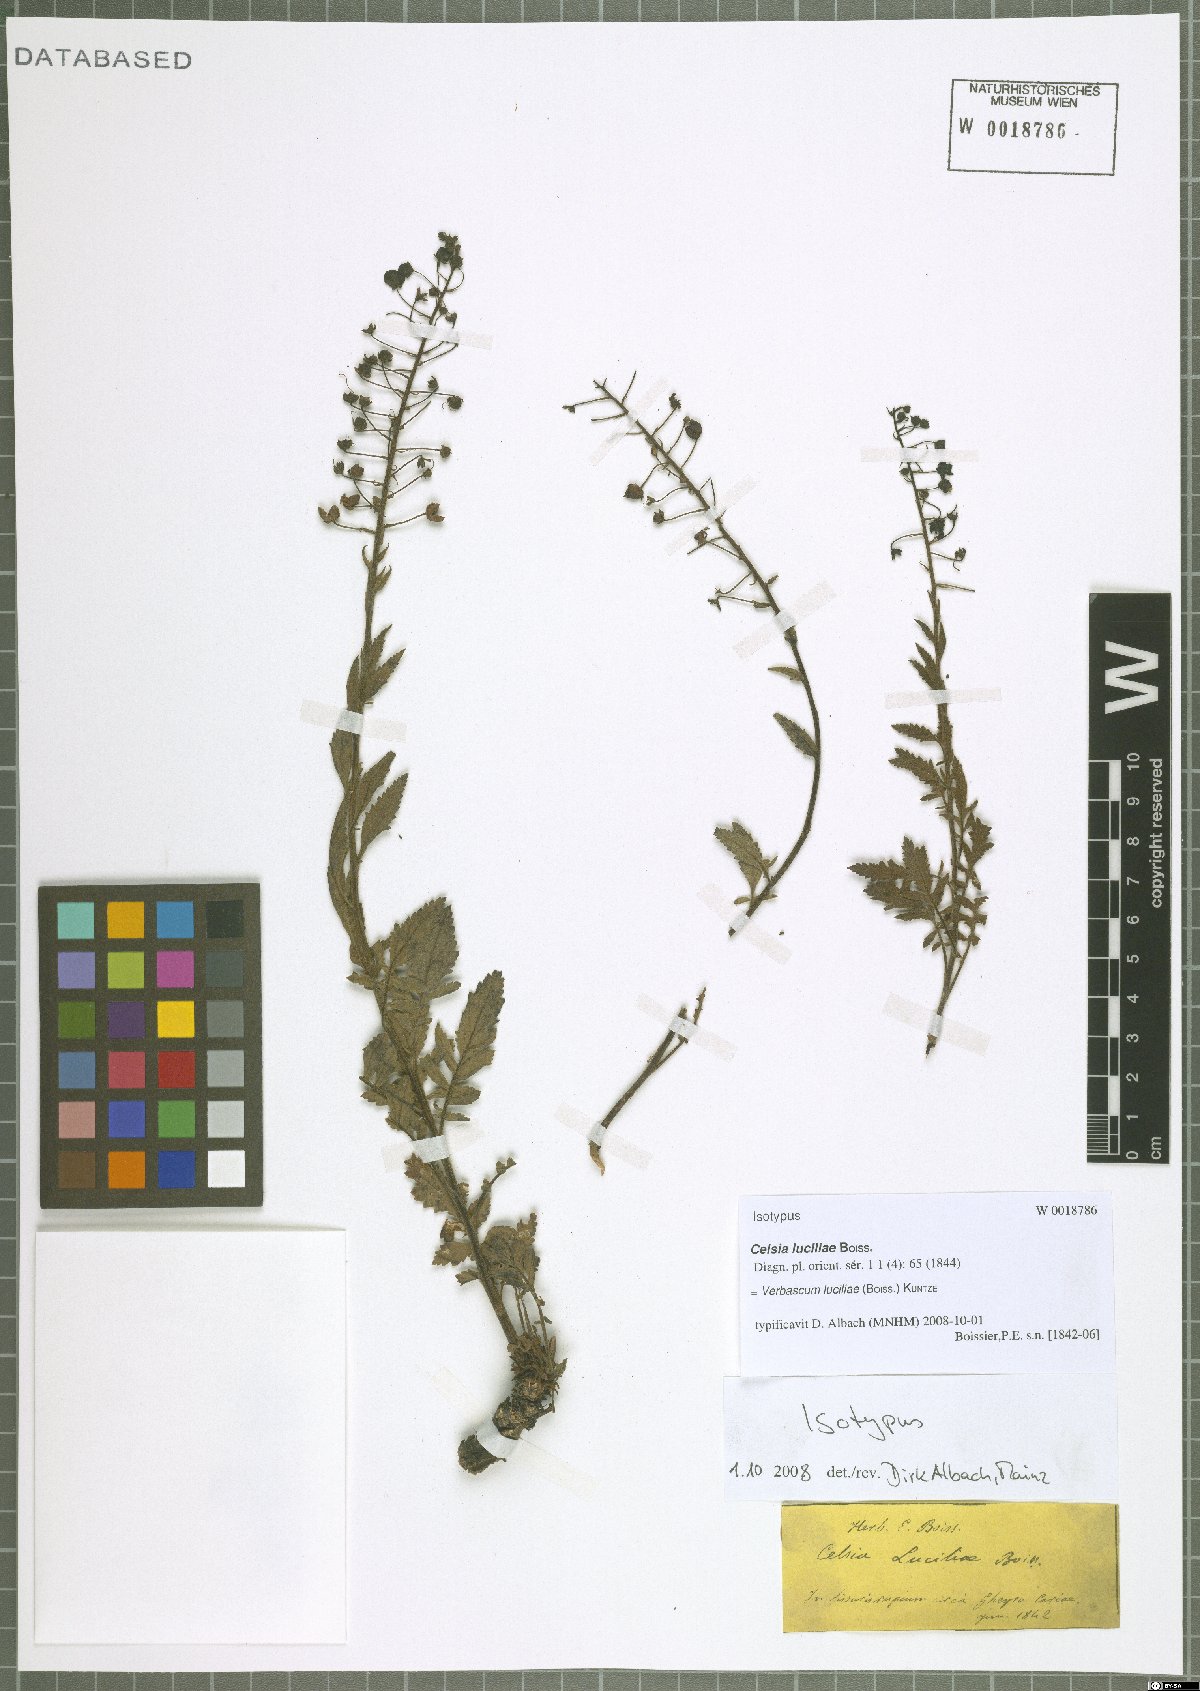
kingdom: Plantae
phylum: Tracheophyta
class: Magnoliopsida
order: Lamiales
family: Scrophulariaceae
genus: Verbascum
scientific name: Verbascum luciliae
